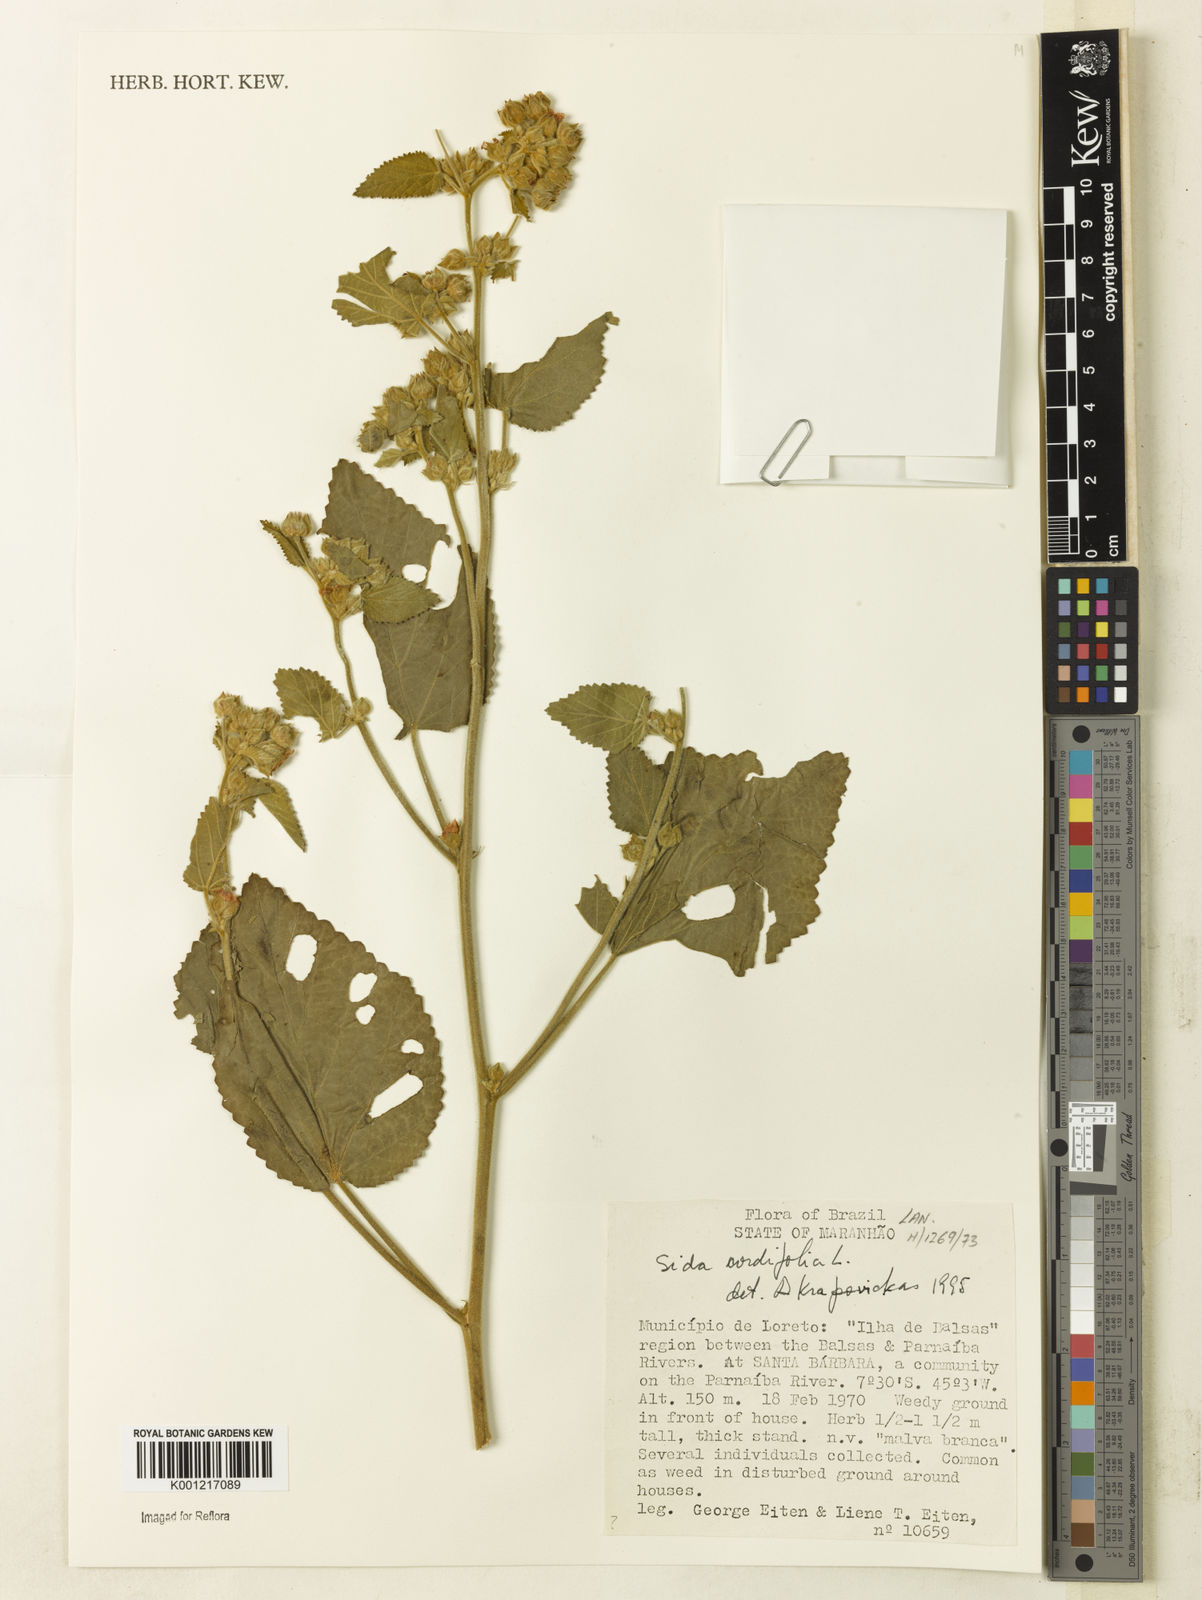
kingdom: Plantae
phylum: Tracheophyta
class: Magnoliopsida
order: Malvales
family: Malvaceae
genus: Sida
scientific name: Sida cordifolia
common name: Ilima
